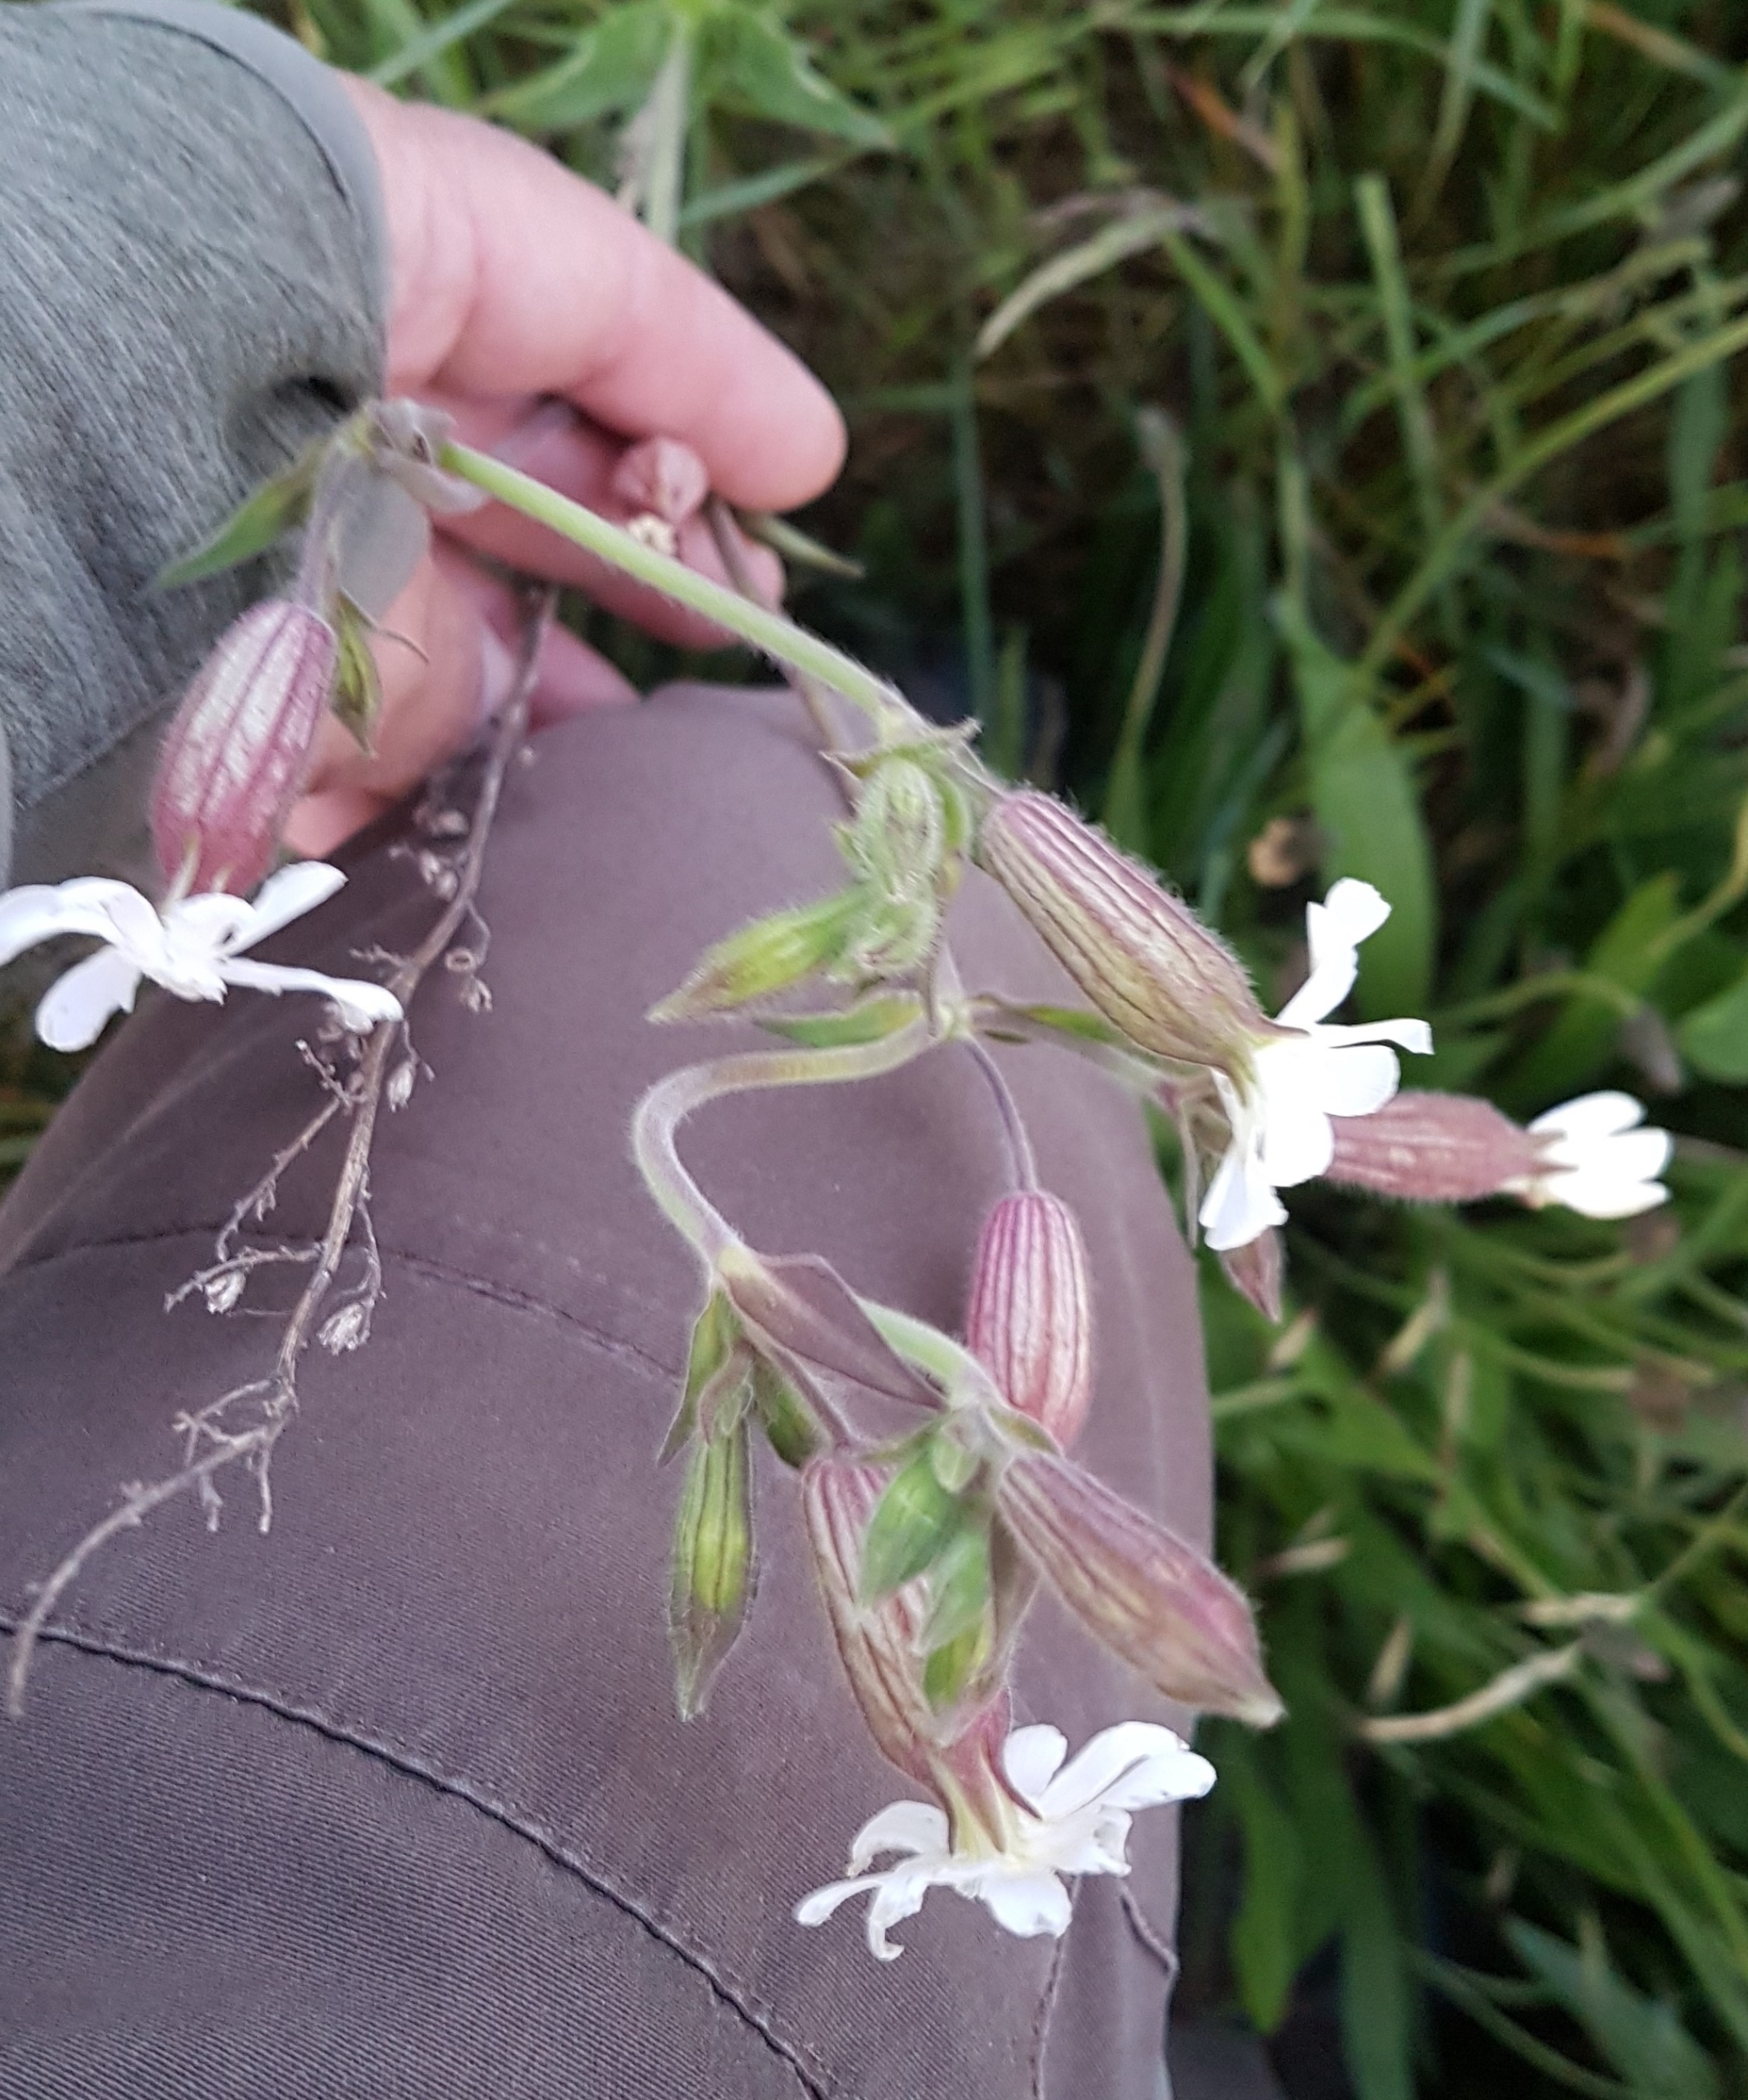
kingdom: Plantae
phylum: Tracheophyta
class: Magnoliopsida
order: Caryophyllales
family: Caryophyllaceae
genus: Silene
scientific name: Silene latifolia
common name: Aftenpragtstjerne
